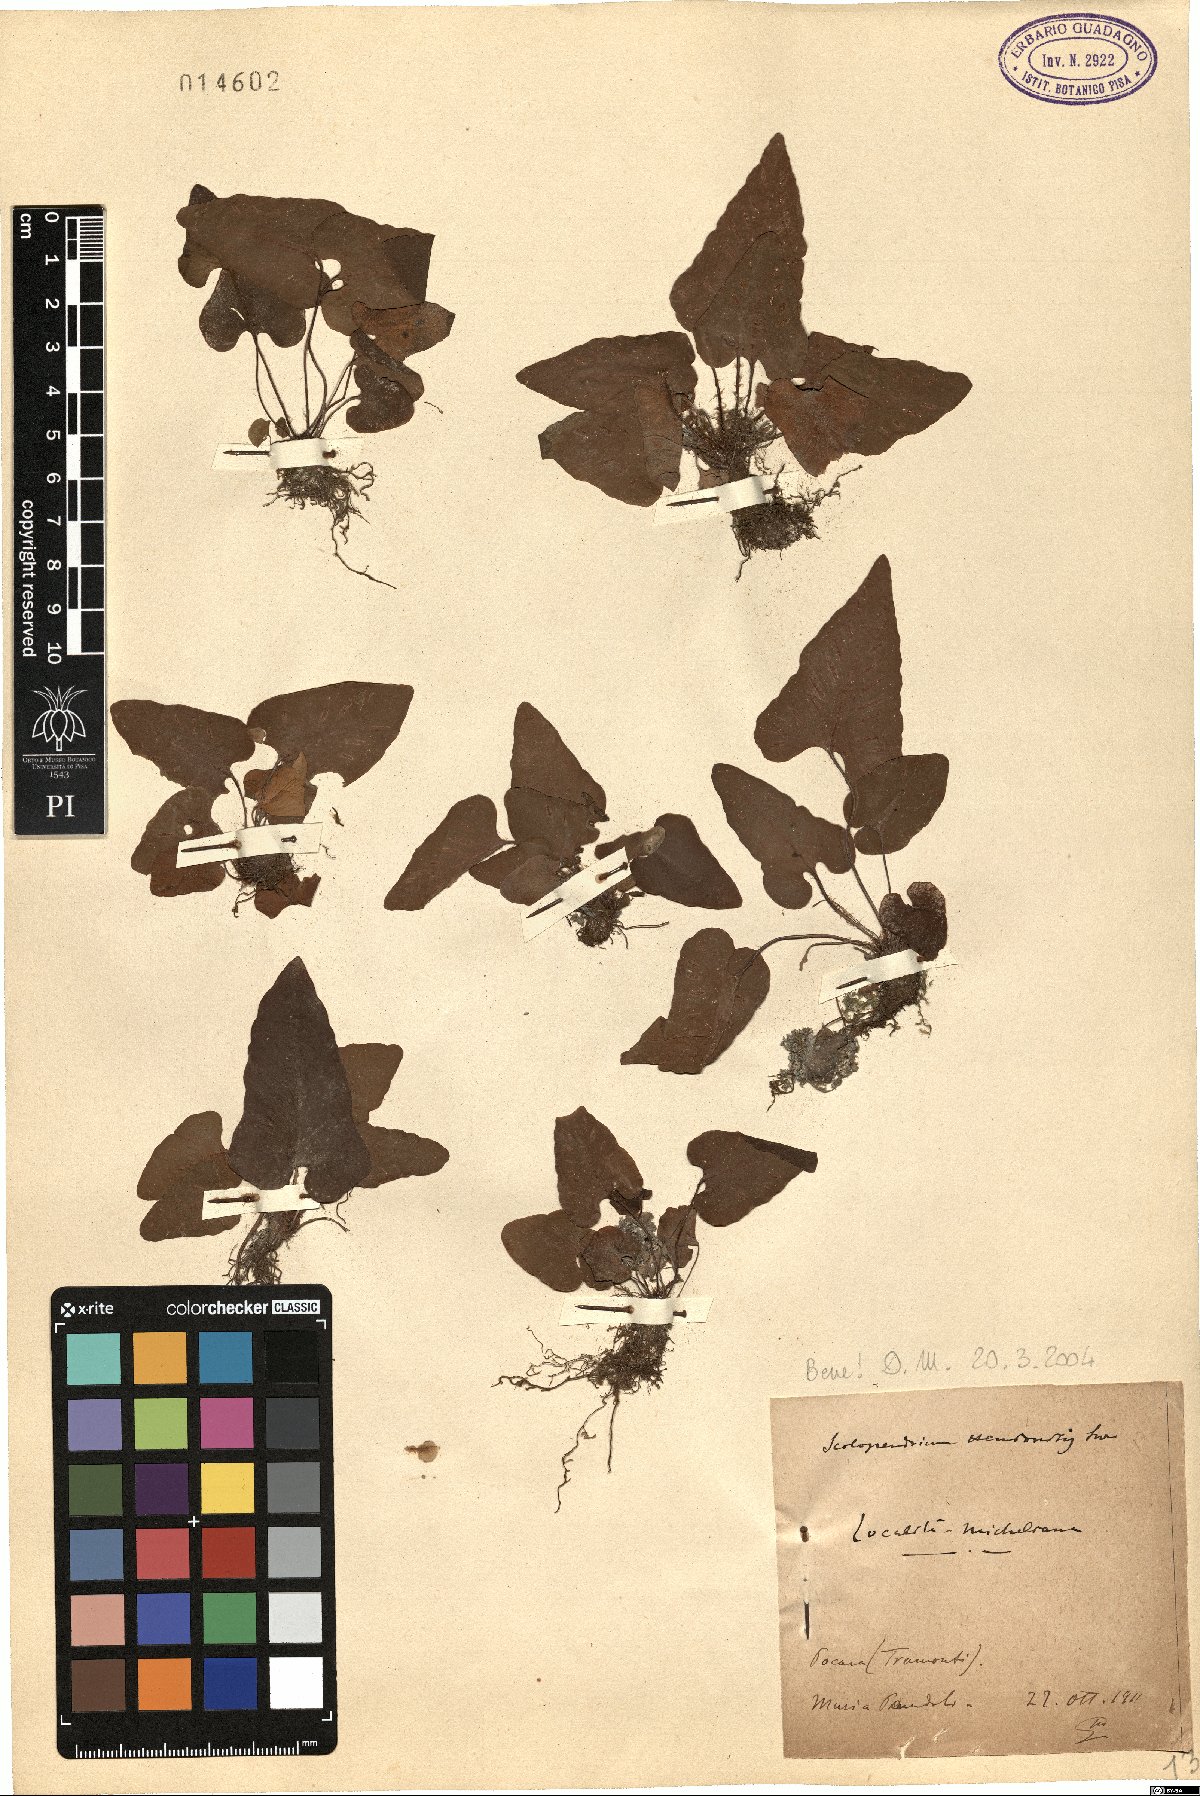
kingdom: Plantae
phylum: Tracheophyta
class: Polypodiopsida
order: Polypodiales
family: Aspleniaceae
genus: Asplenium
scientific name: Asplenium sagittatum
